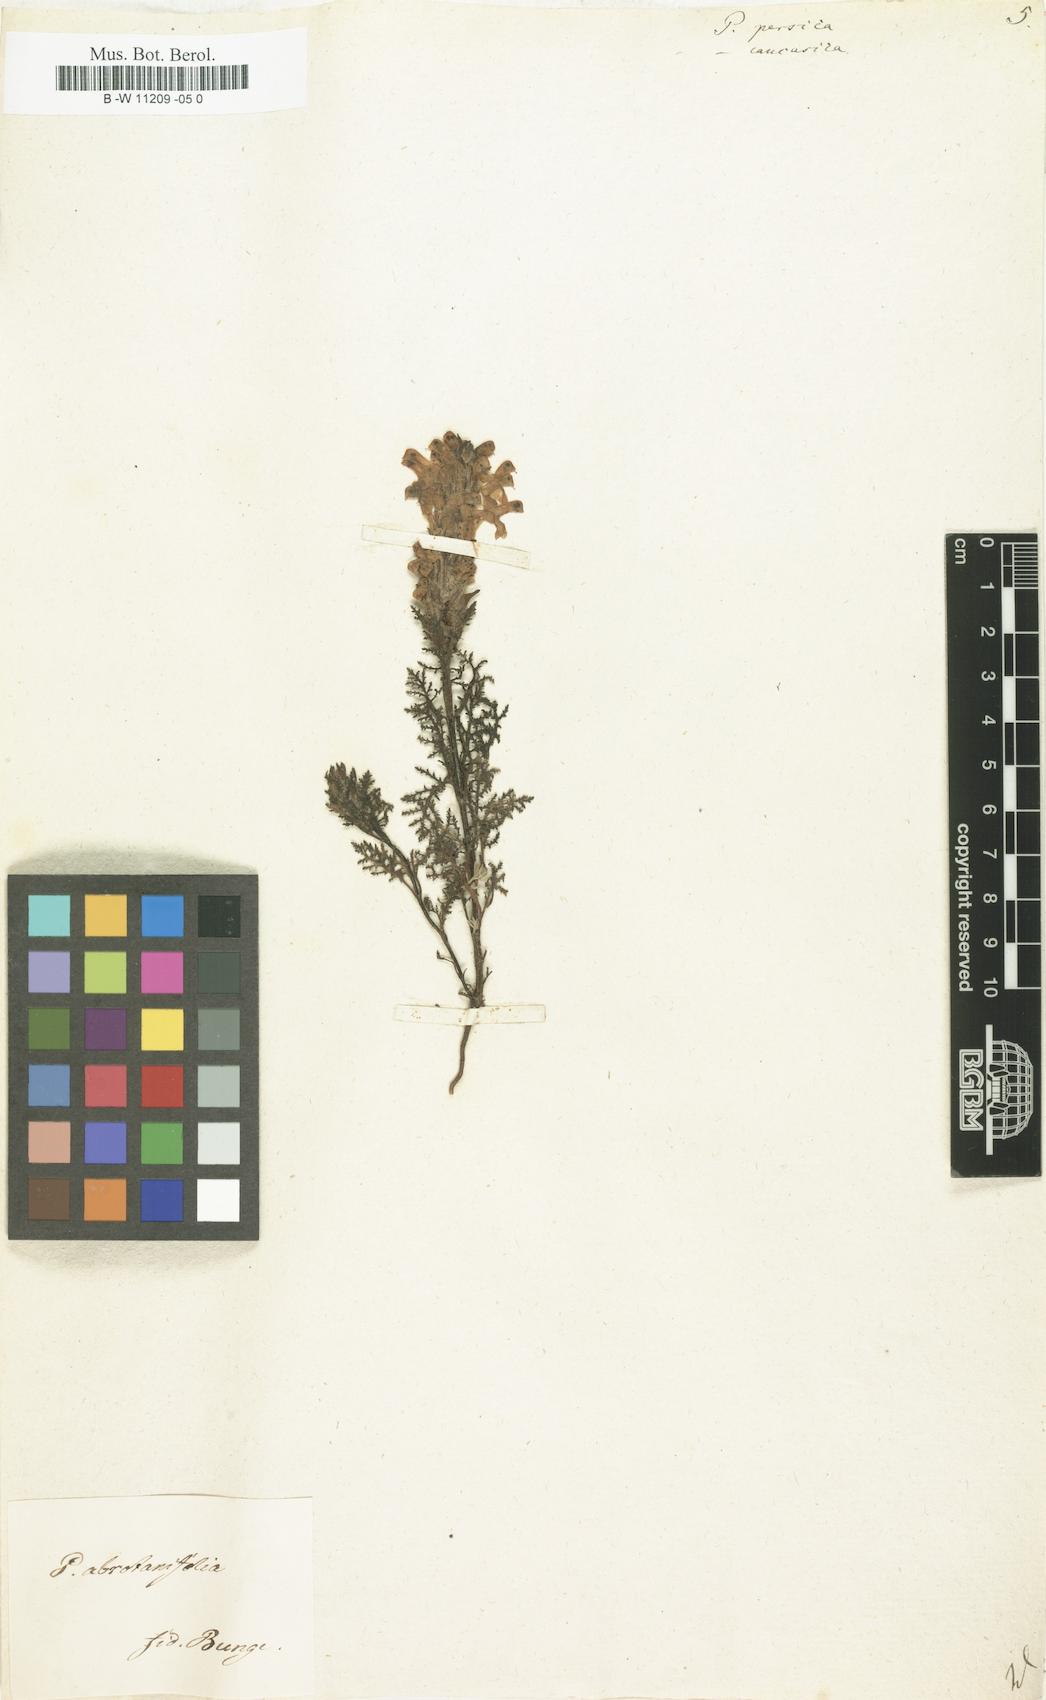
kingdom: Plantae
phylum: Tracheophyta
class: Magnoliopsida
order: Lamiales
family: Orobanchaceae
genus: Pedicularis
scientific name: Pedicularis caucasica
